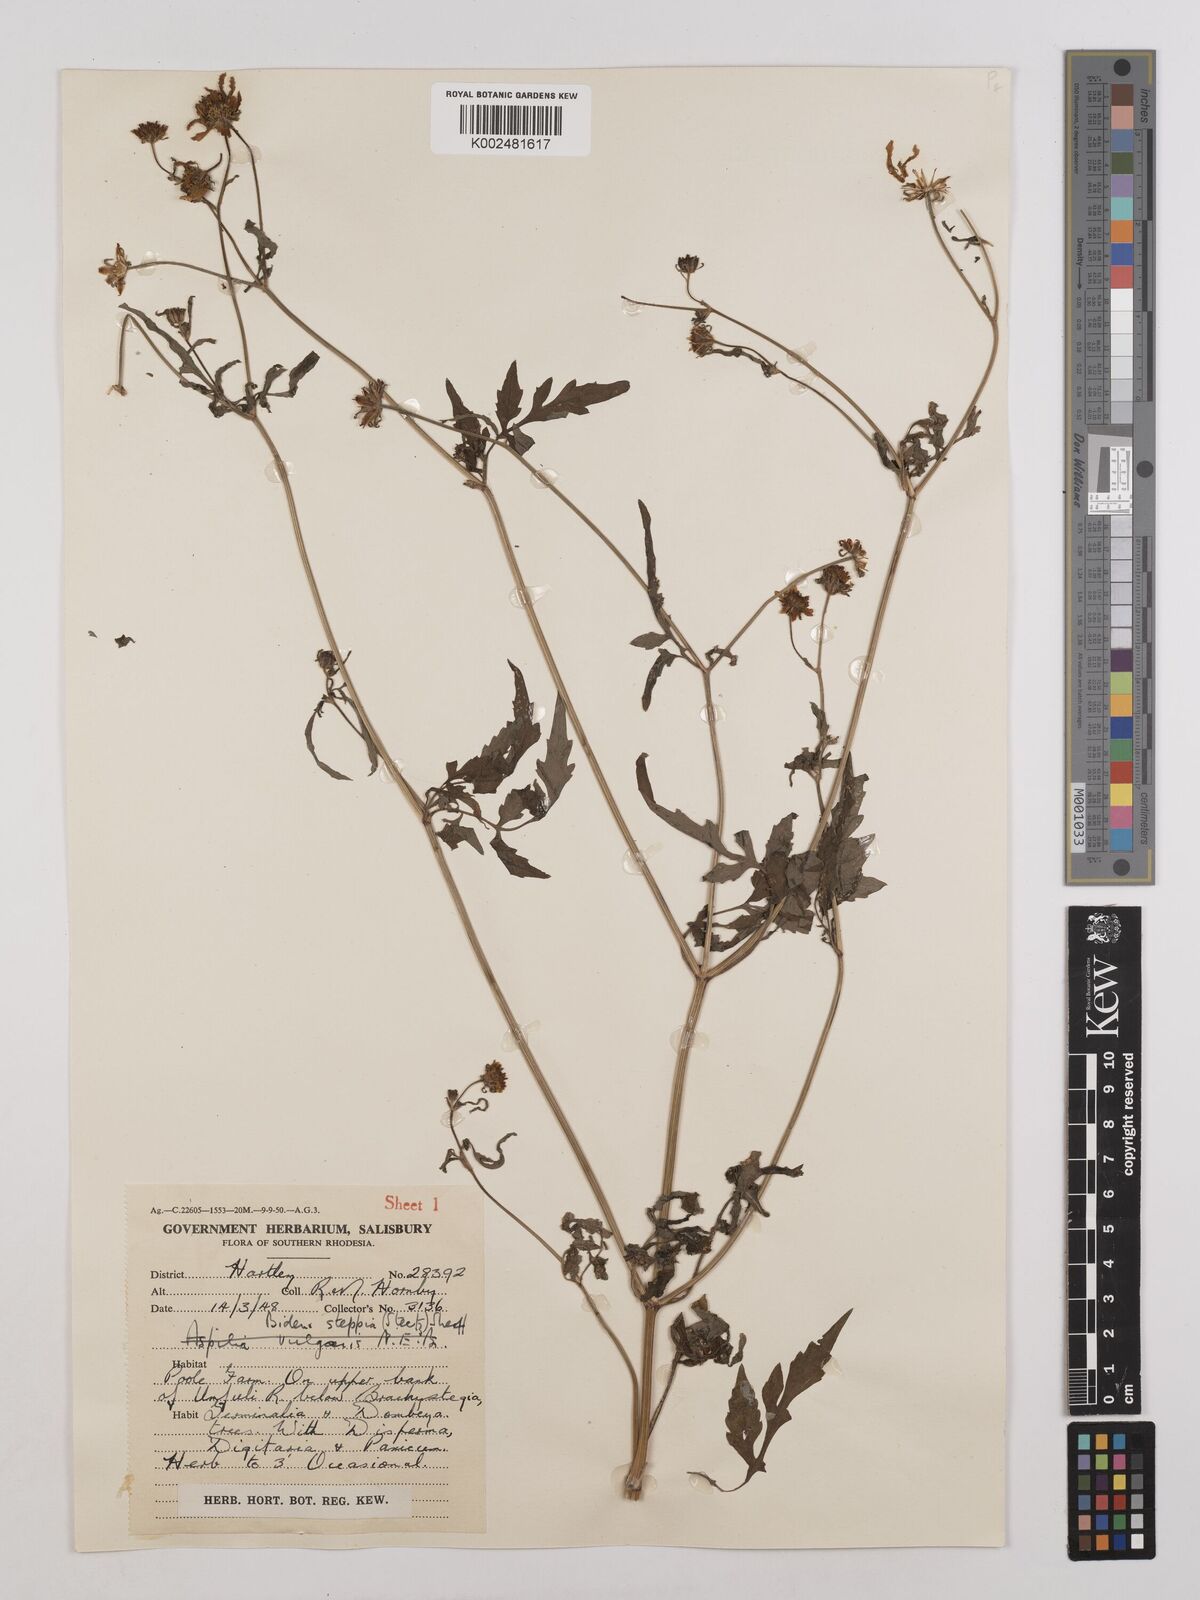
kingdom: Plantae
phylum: Tracheophyta
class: Magnoliopsida
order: Asterales
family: Asteraceae
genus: Bidens
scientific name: Bidens schimperi
